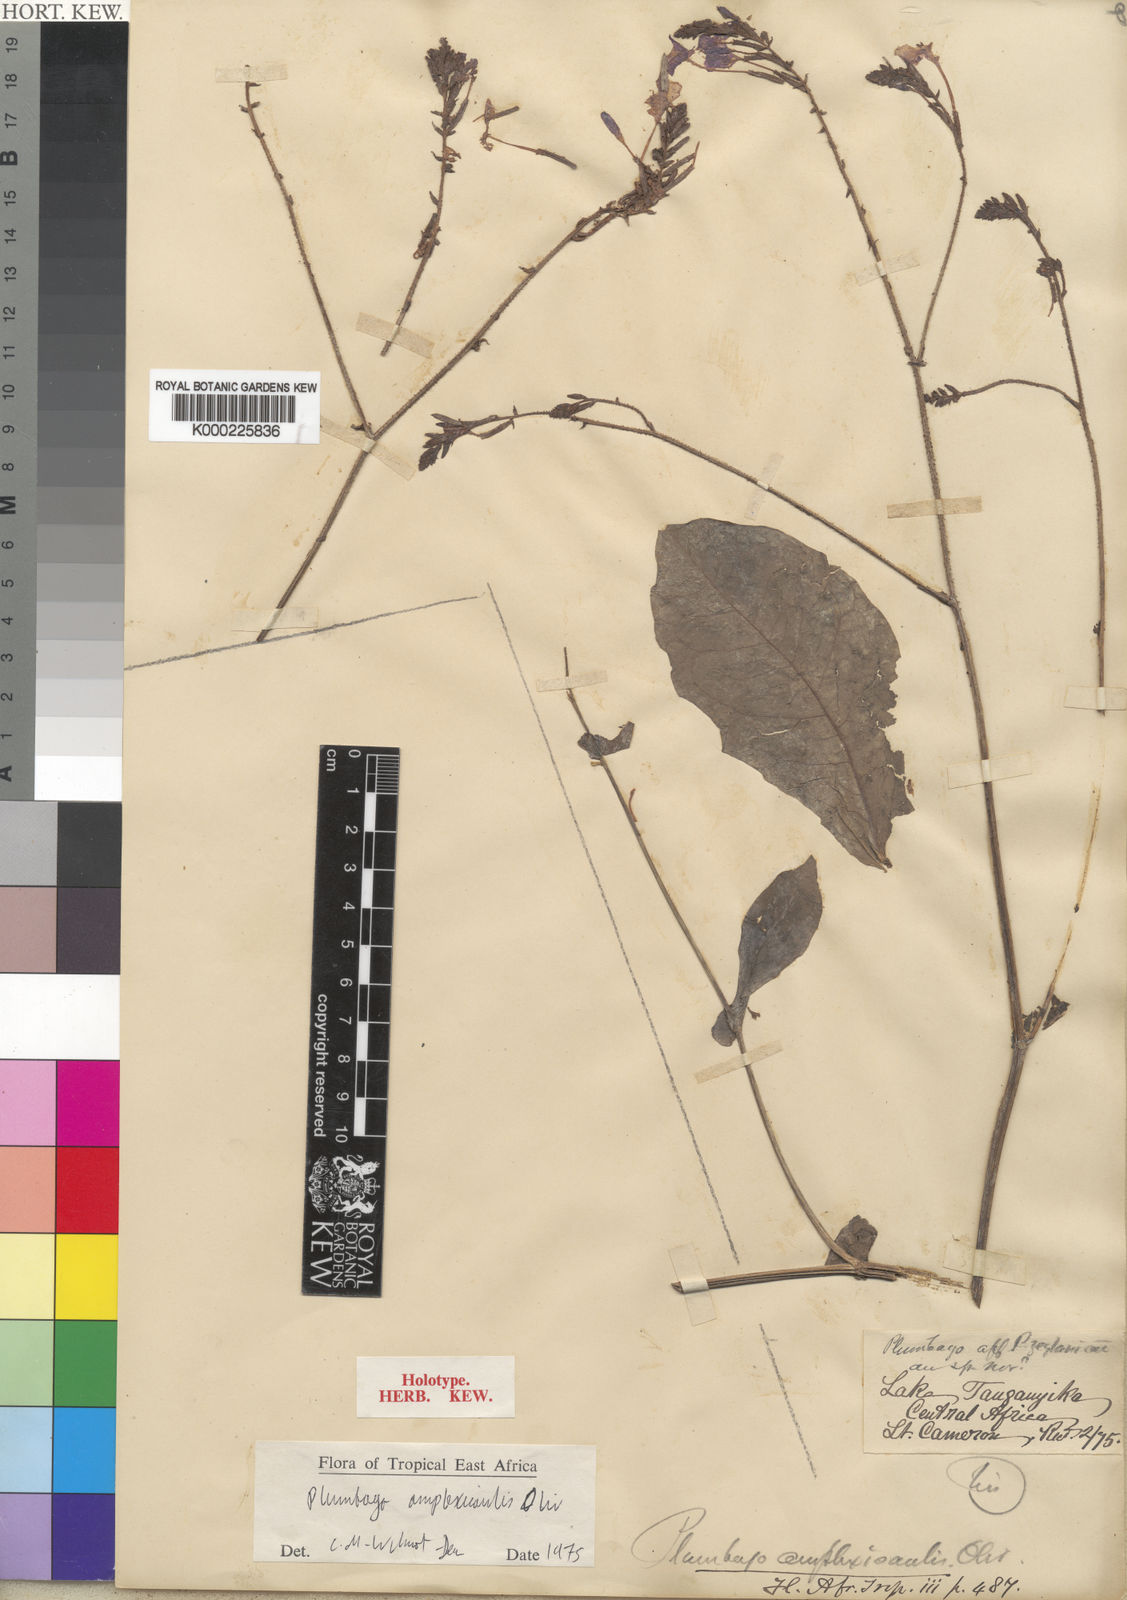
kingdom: Plantae
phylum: Tracheophyta
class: Magnoliopsida
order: Caryophyllales
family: Plumbaginaceae
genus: Plumbago
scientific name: Plumbago amplexicaulis
